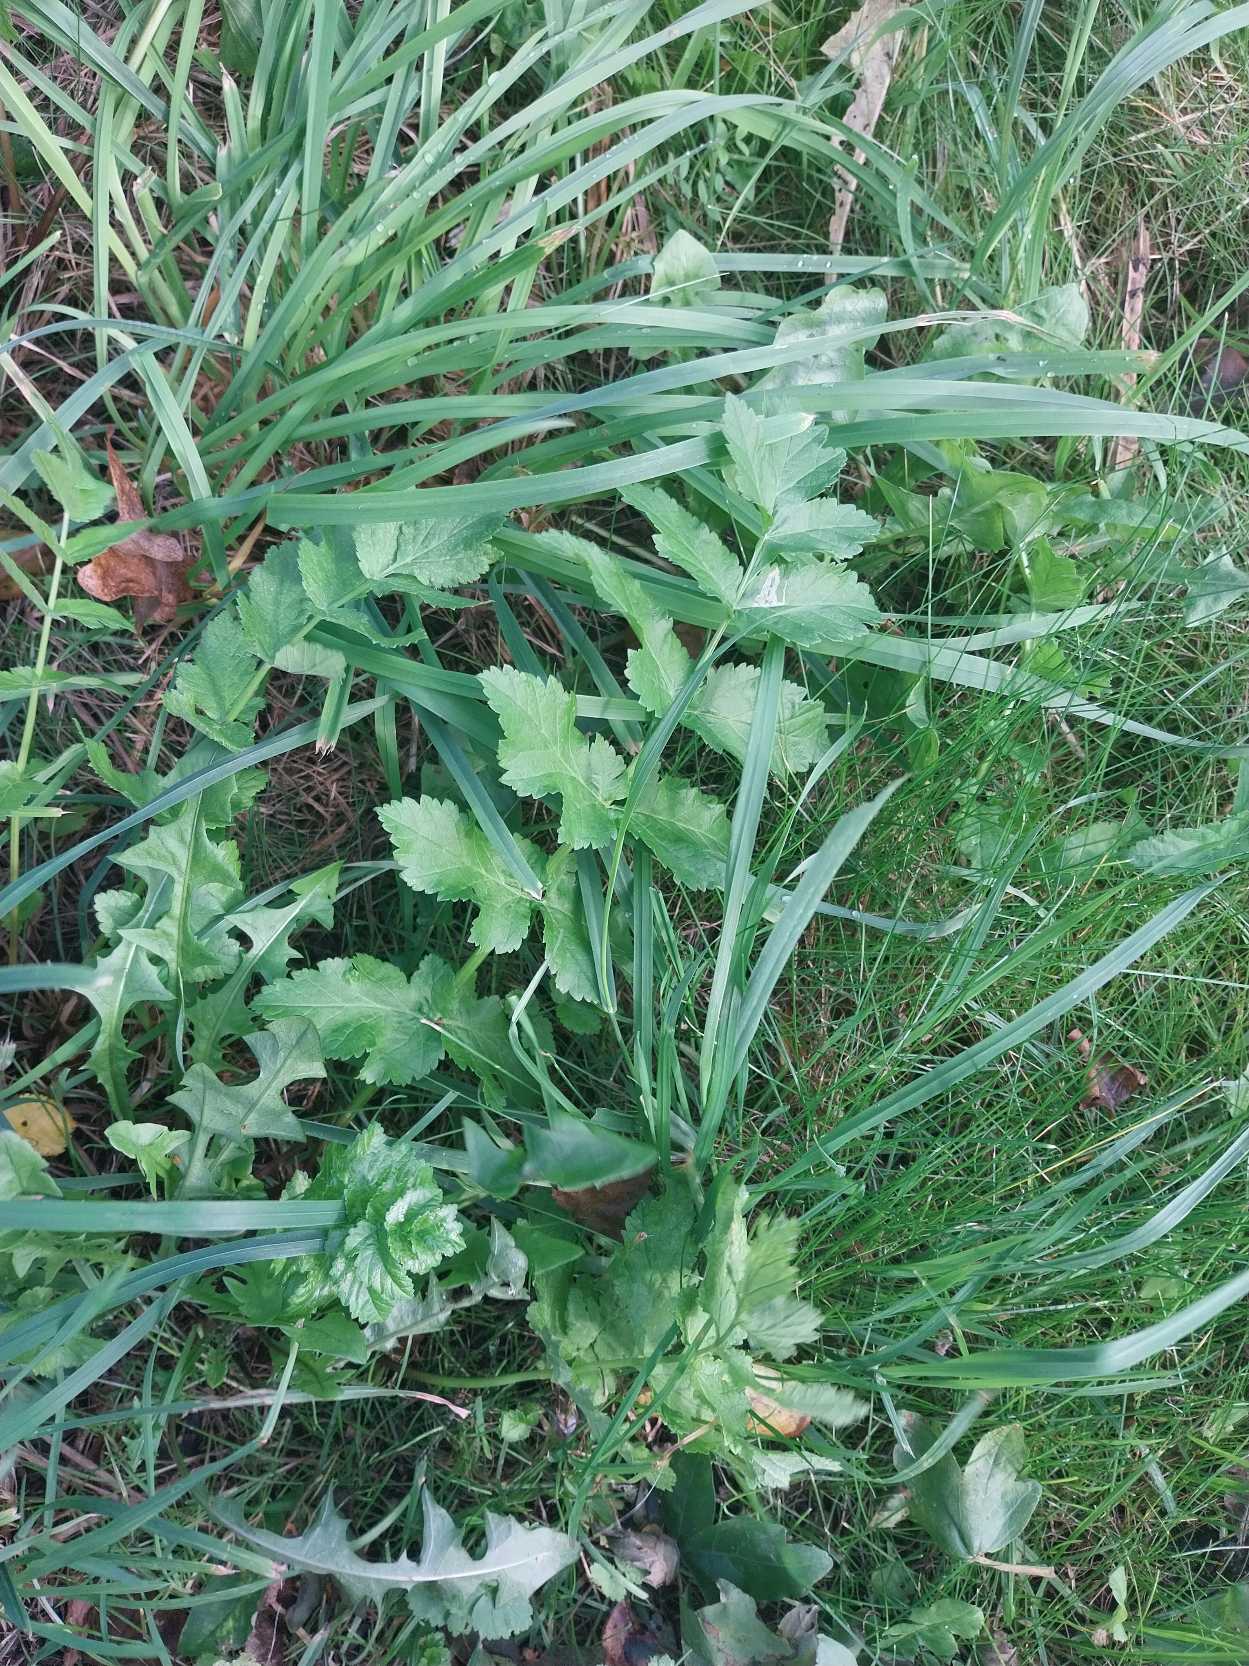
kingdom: Plantae
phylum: Tracheophyta
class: Magnoliopsida
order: Apiales
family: Apiaceae
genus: Pastinaca
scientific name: Pastinaca sativa
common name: Pastinak
